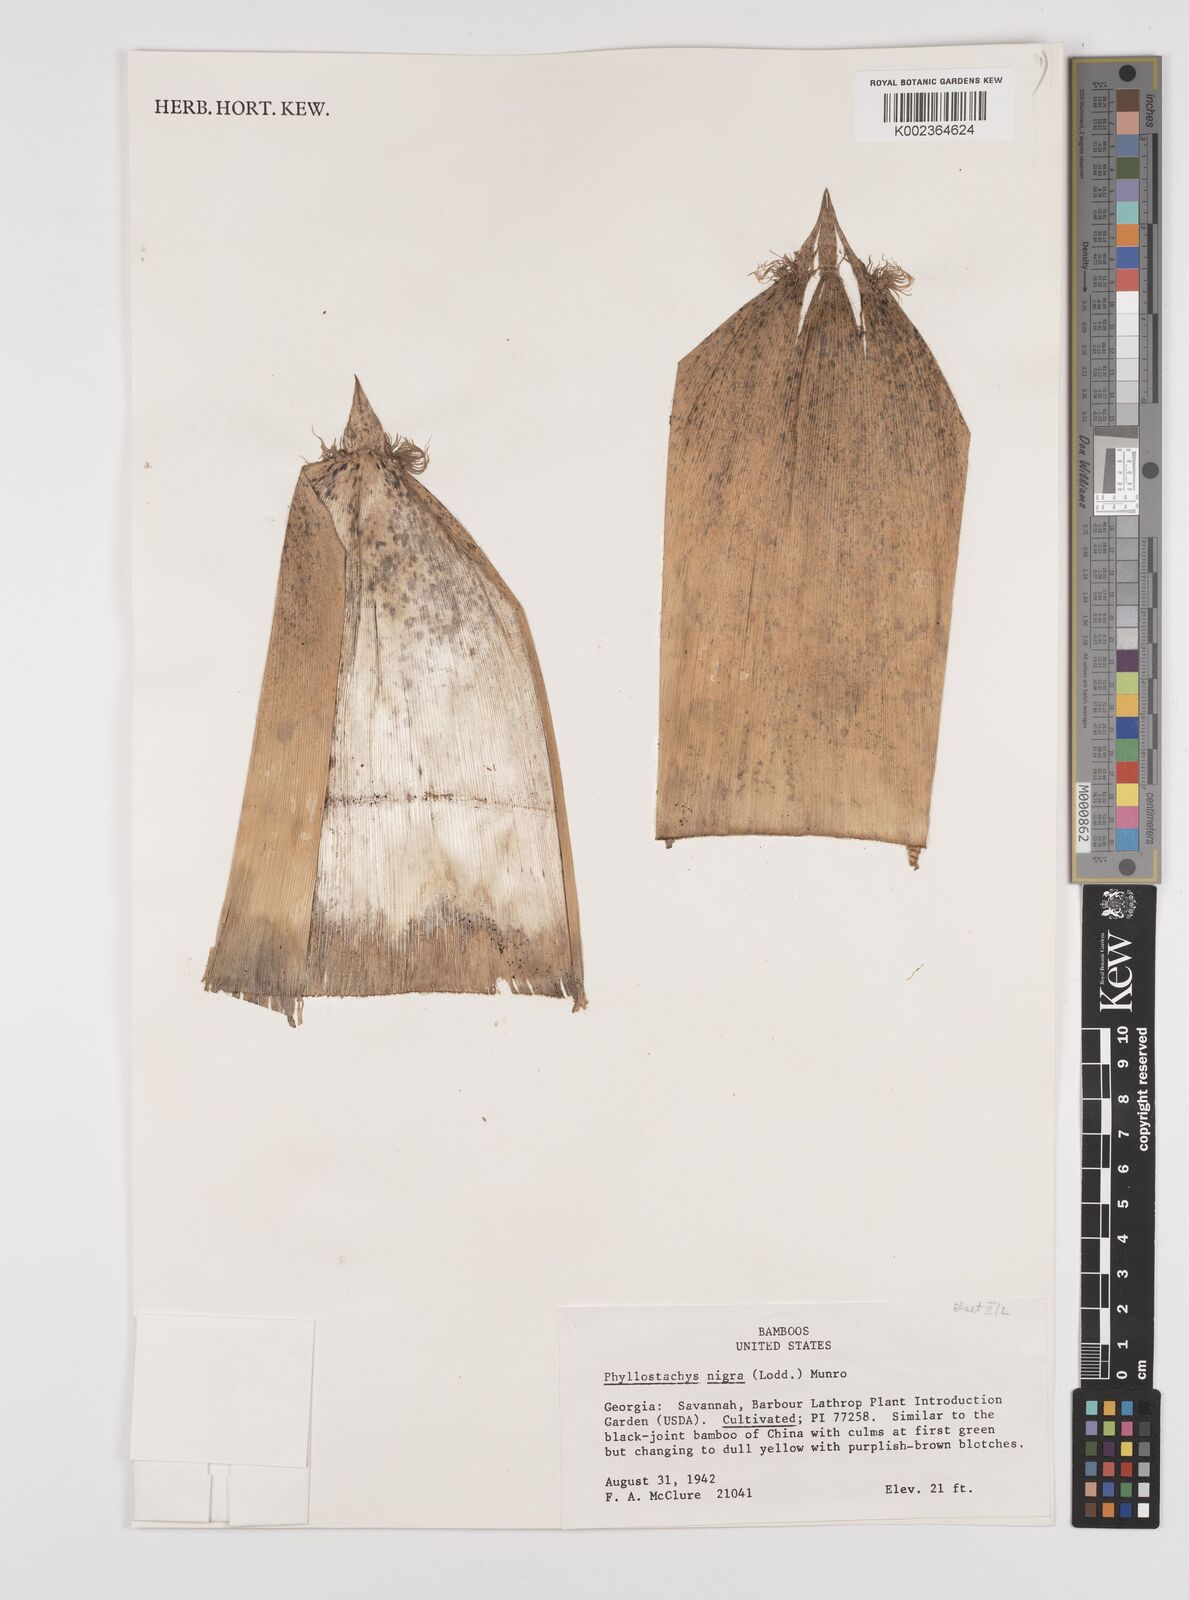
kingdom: Plantae
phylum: Tracheophyta
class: Liliopsida
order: Poales
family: Poaceae
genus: Phyllostachys
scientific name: Phyllostachys nigra
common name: Black bamboo
